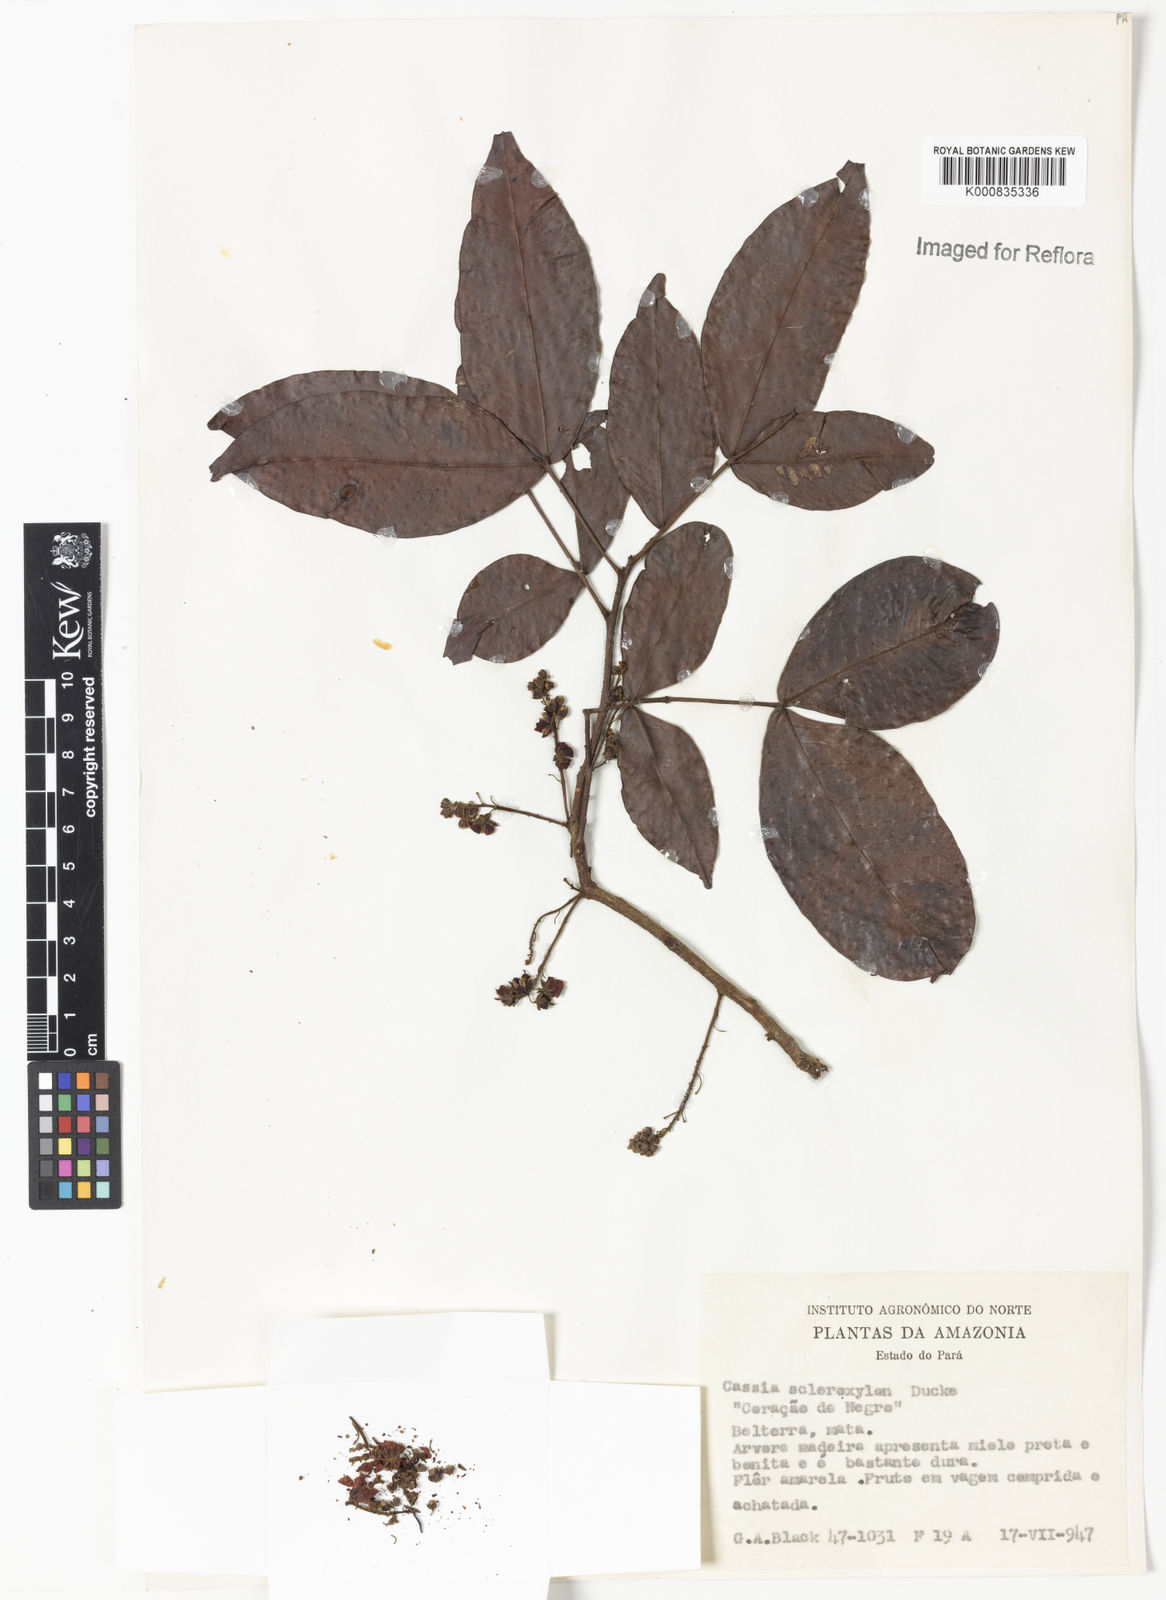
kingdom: Plantae
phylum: Tracheophyta
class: Magnoliopsida
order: Fabales
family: Fabaceae
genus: Chamaecrista
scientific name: Chamaecrista scleroxylon
